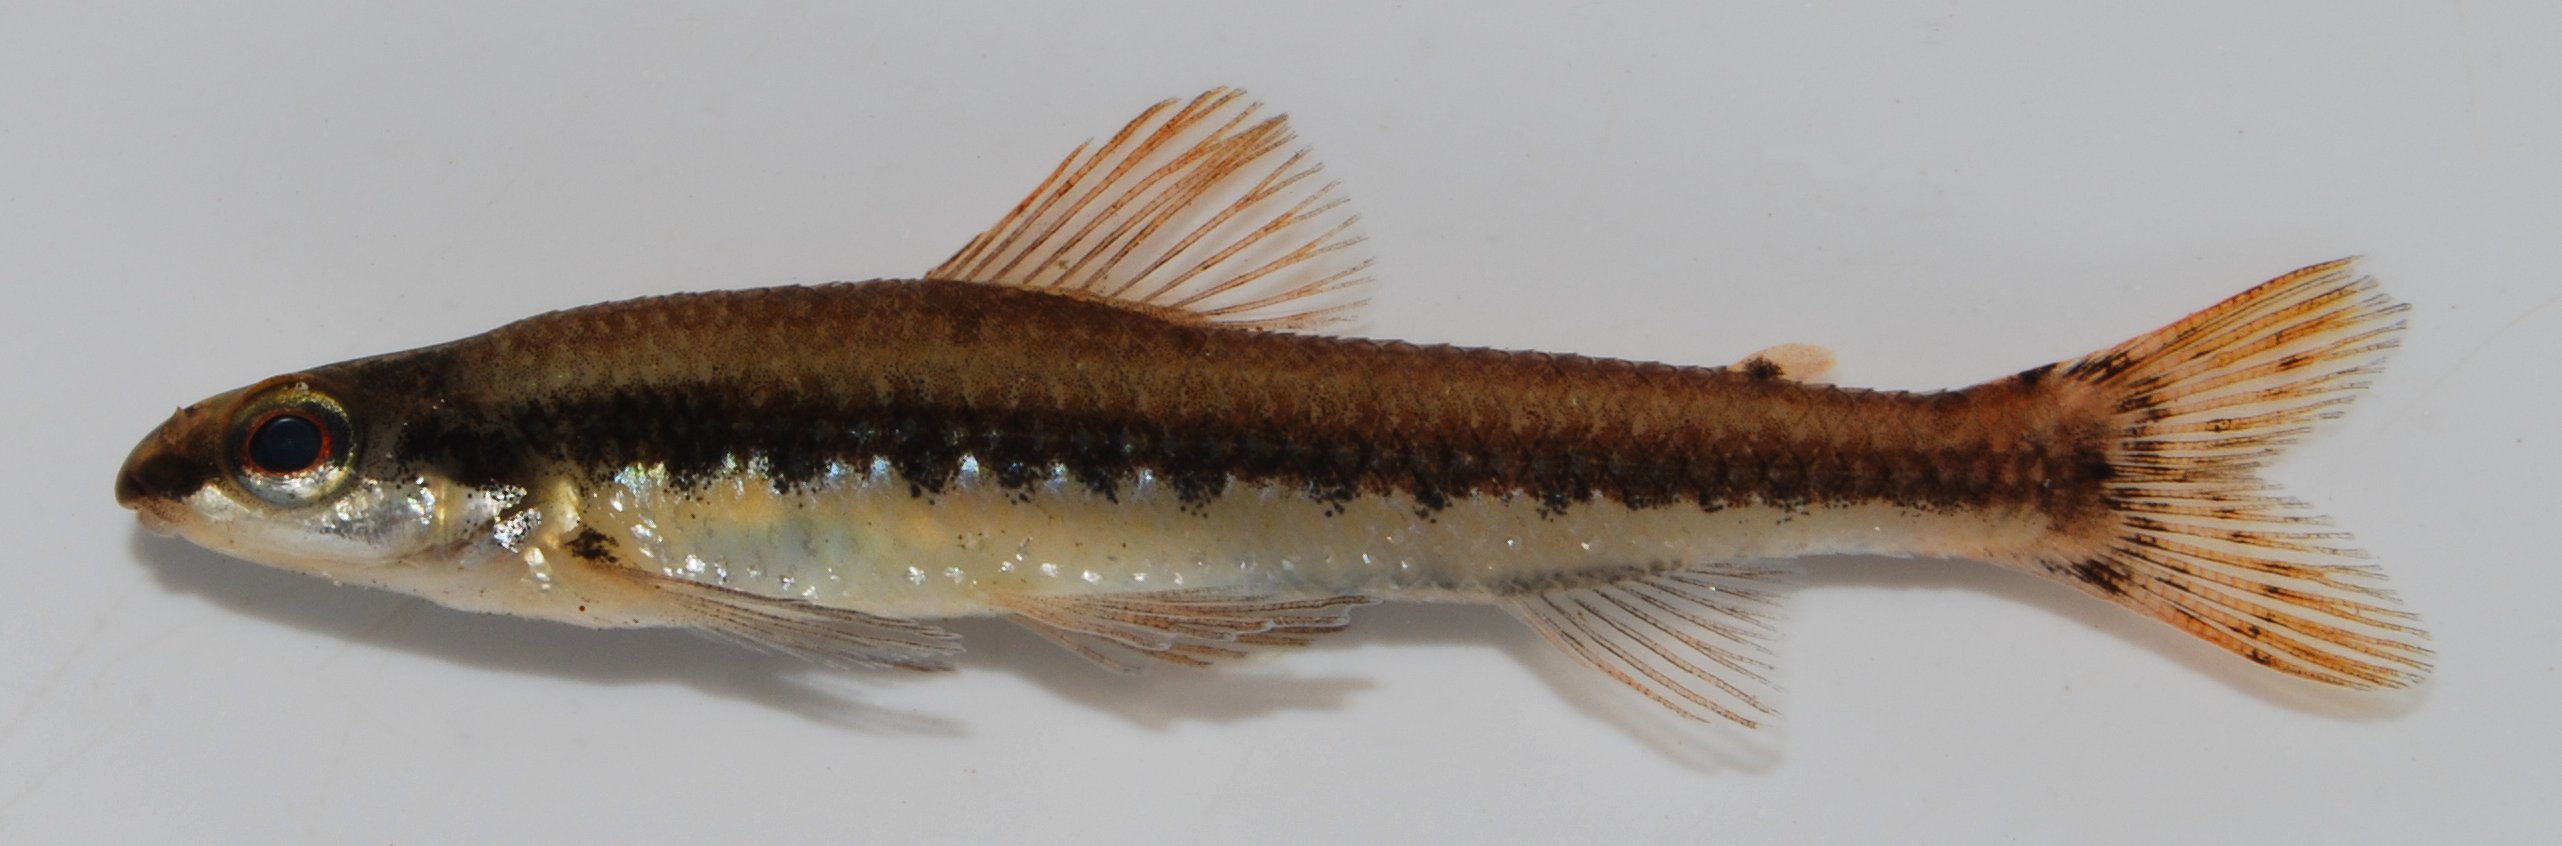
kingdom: Animalia
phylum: Chordata
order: Characiformes
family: Distichodontidae
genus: Nannocharax
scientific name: Nannocharax macropterus
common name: Broad-barred citharine
